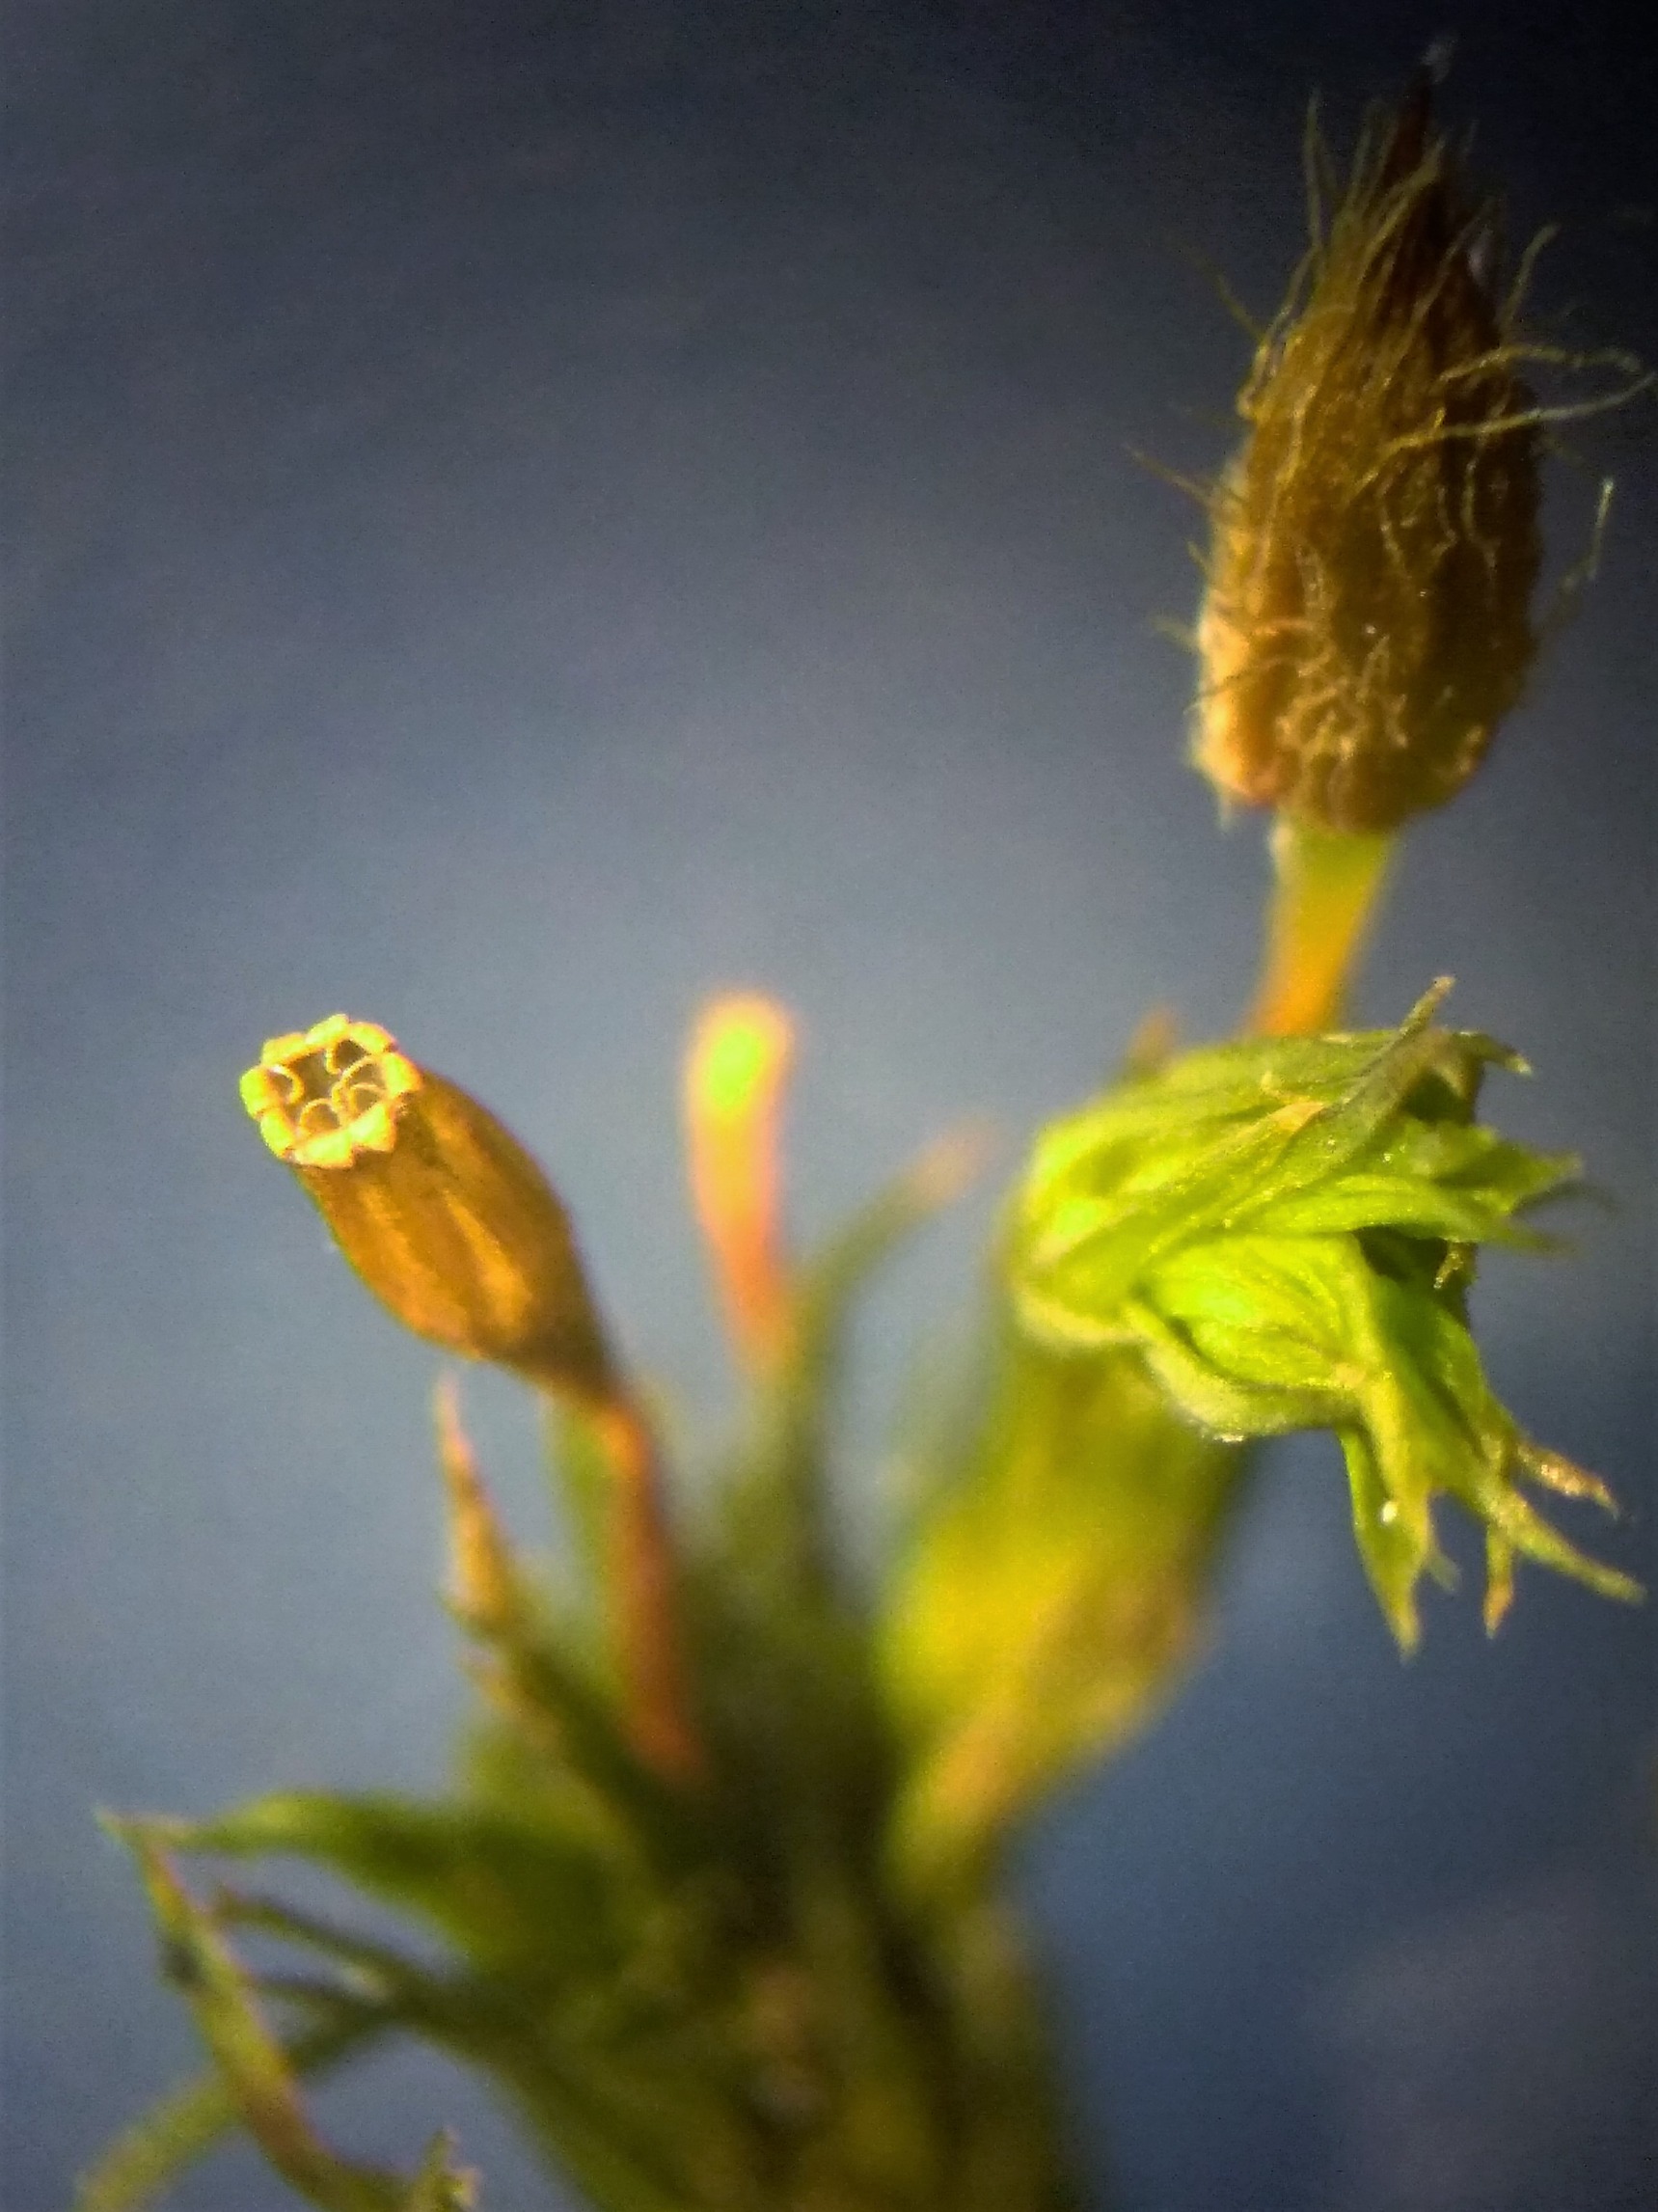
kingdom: Plantae
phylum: Bryophyta
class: Bryopsida
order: Orthotrichales
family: Orthotrichaceae
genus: Lewinskya
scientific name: Lewinskya speciosa
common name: Kortstribet furehætte
